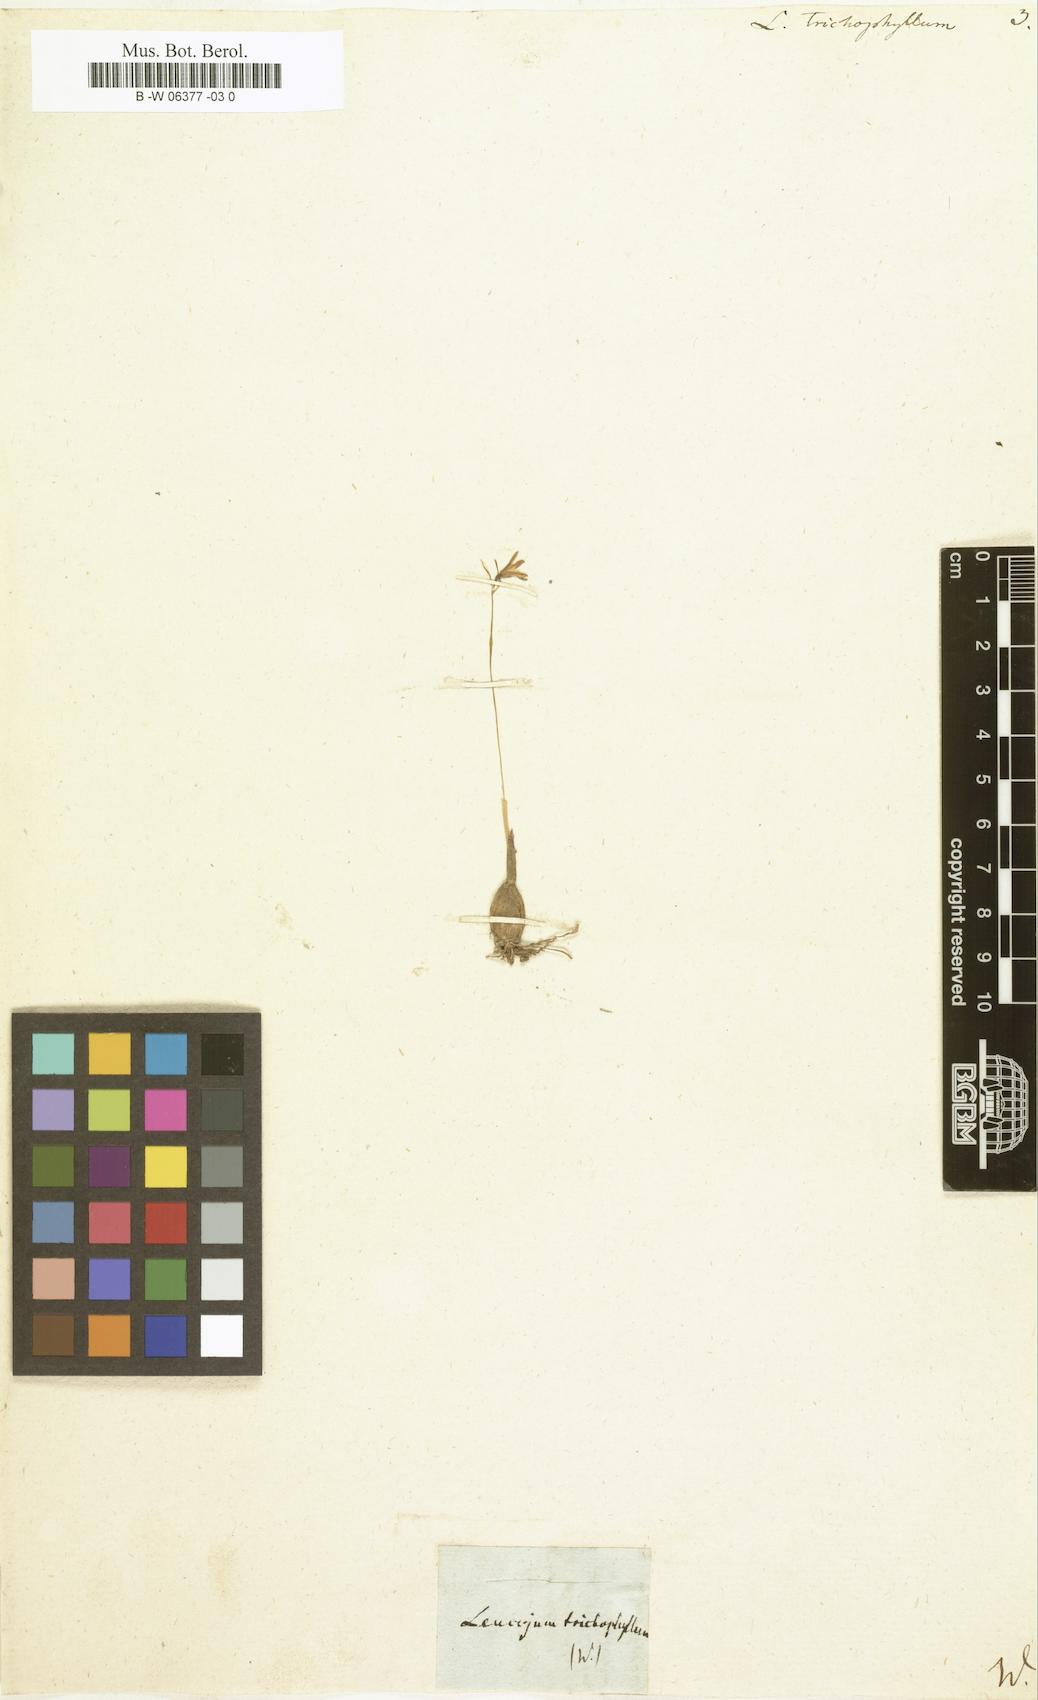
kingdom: Plantae
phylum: Tracheophyta
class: Liliopsida
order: Asparagales
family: Amaryllidaceae
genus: Acis
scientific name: Acis
